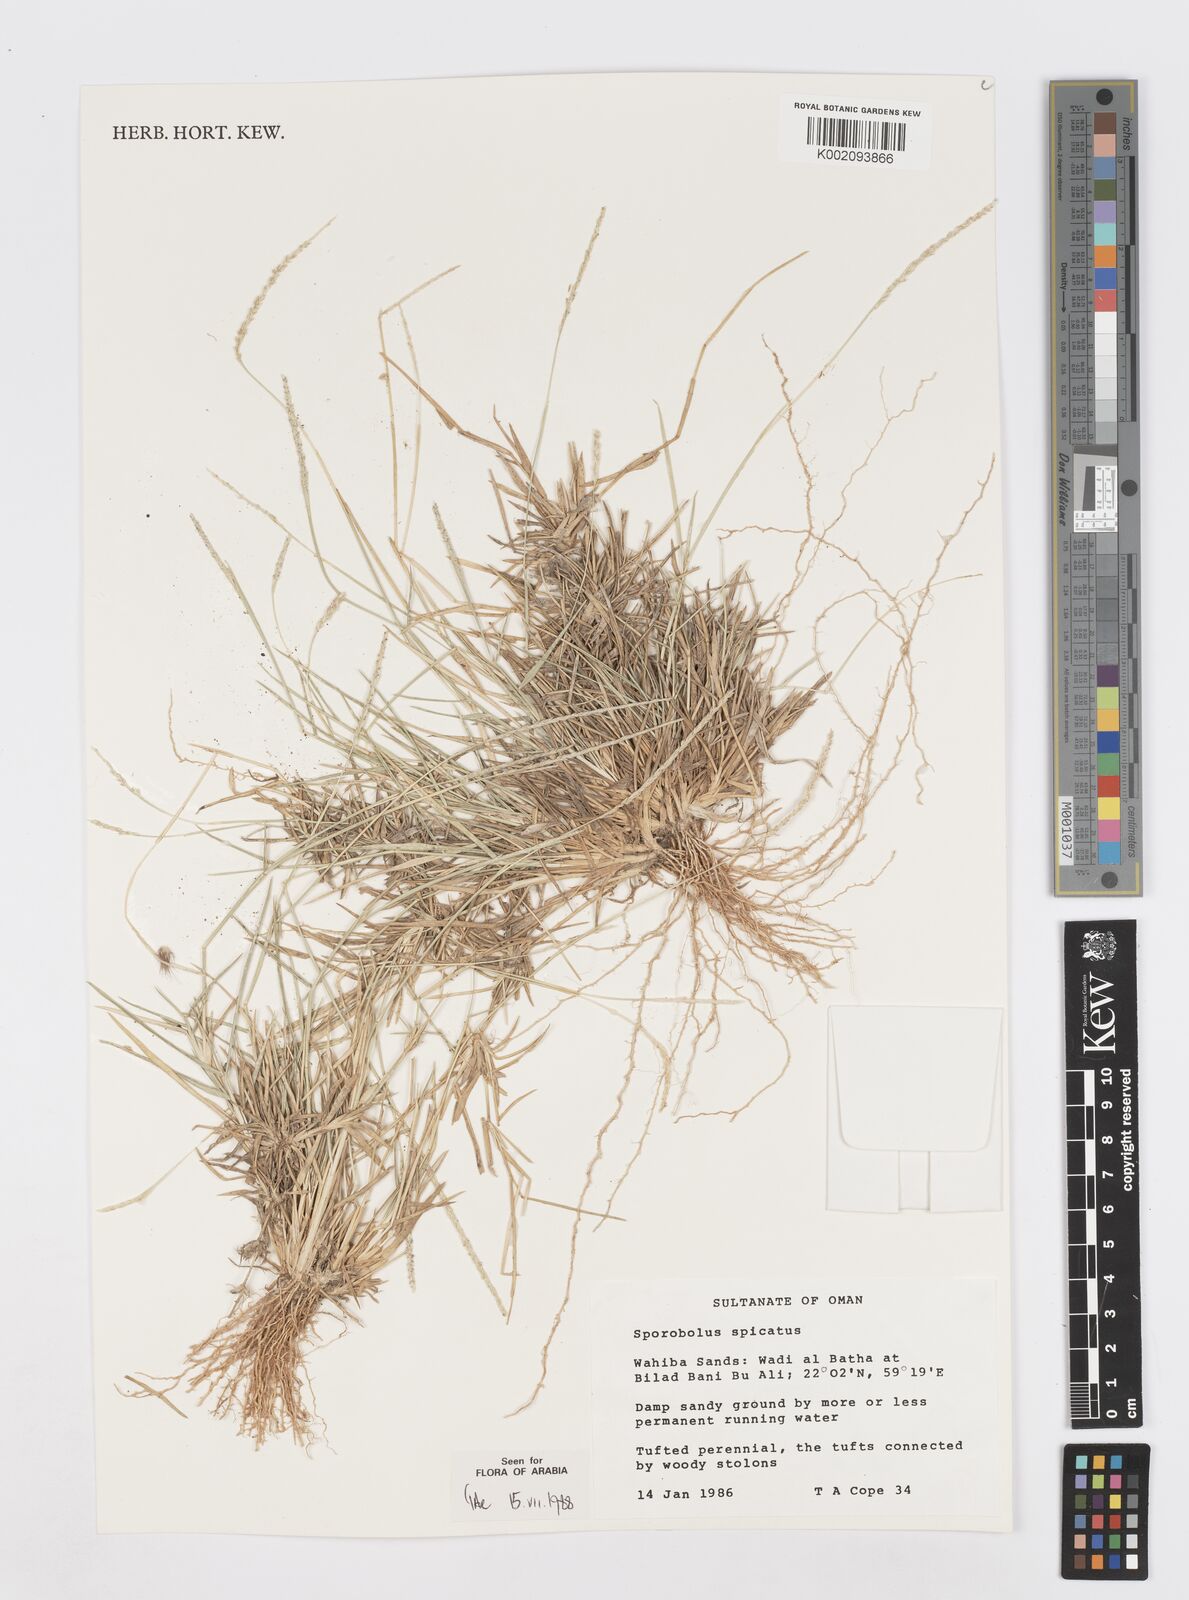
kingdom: Plantae
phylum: Tracheophyta
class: Liliopsida
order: Poales
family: Poaceae
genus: Sporobolus
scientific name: Sporobolus spicatus
